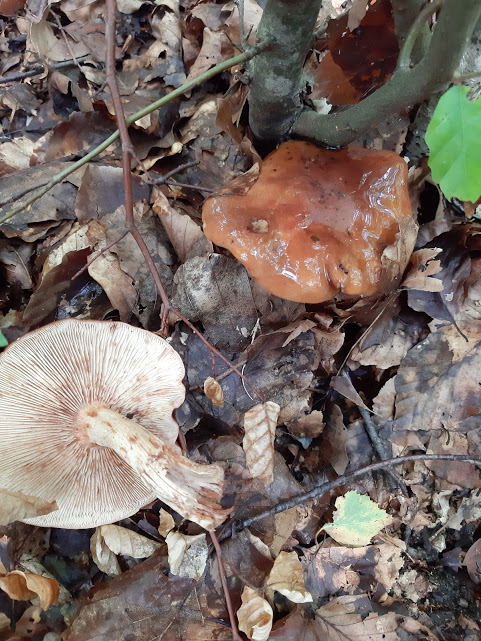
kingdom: Fungi
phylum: Basidiomycota
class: Agaricomycetes
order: Agaricales
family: Tricholomataceae
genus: Tricholoma
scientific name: Tricholoma ustale
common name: sveden ridderhat
